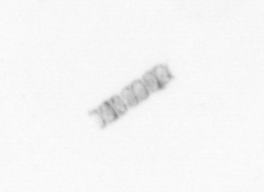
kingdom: Animalia
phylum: Arthropoda
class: Copepoda
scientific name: Copepoda
